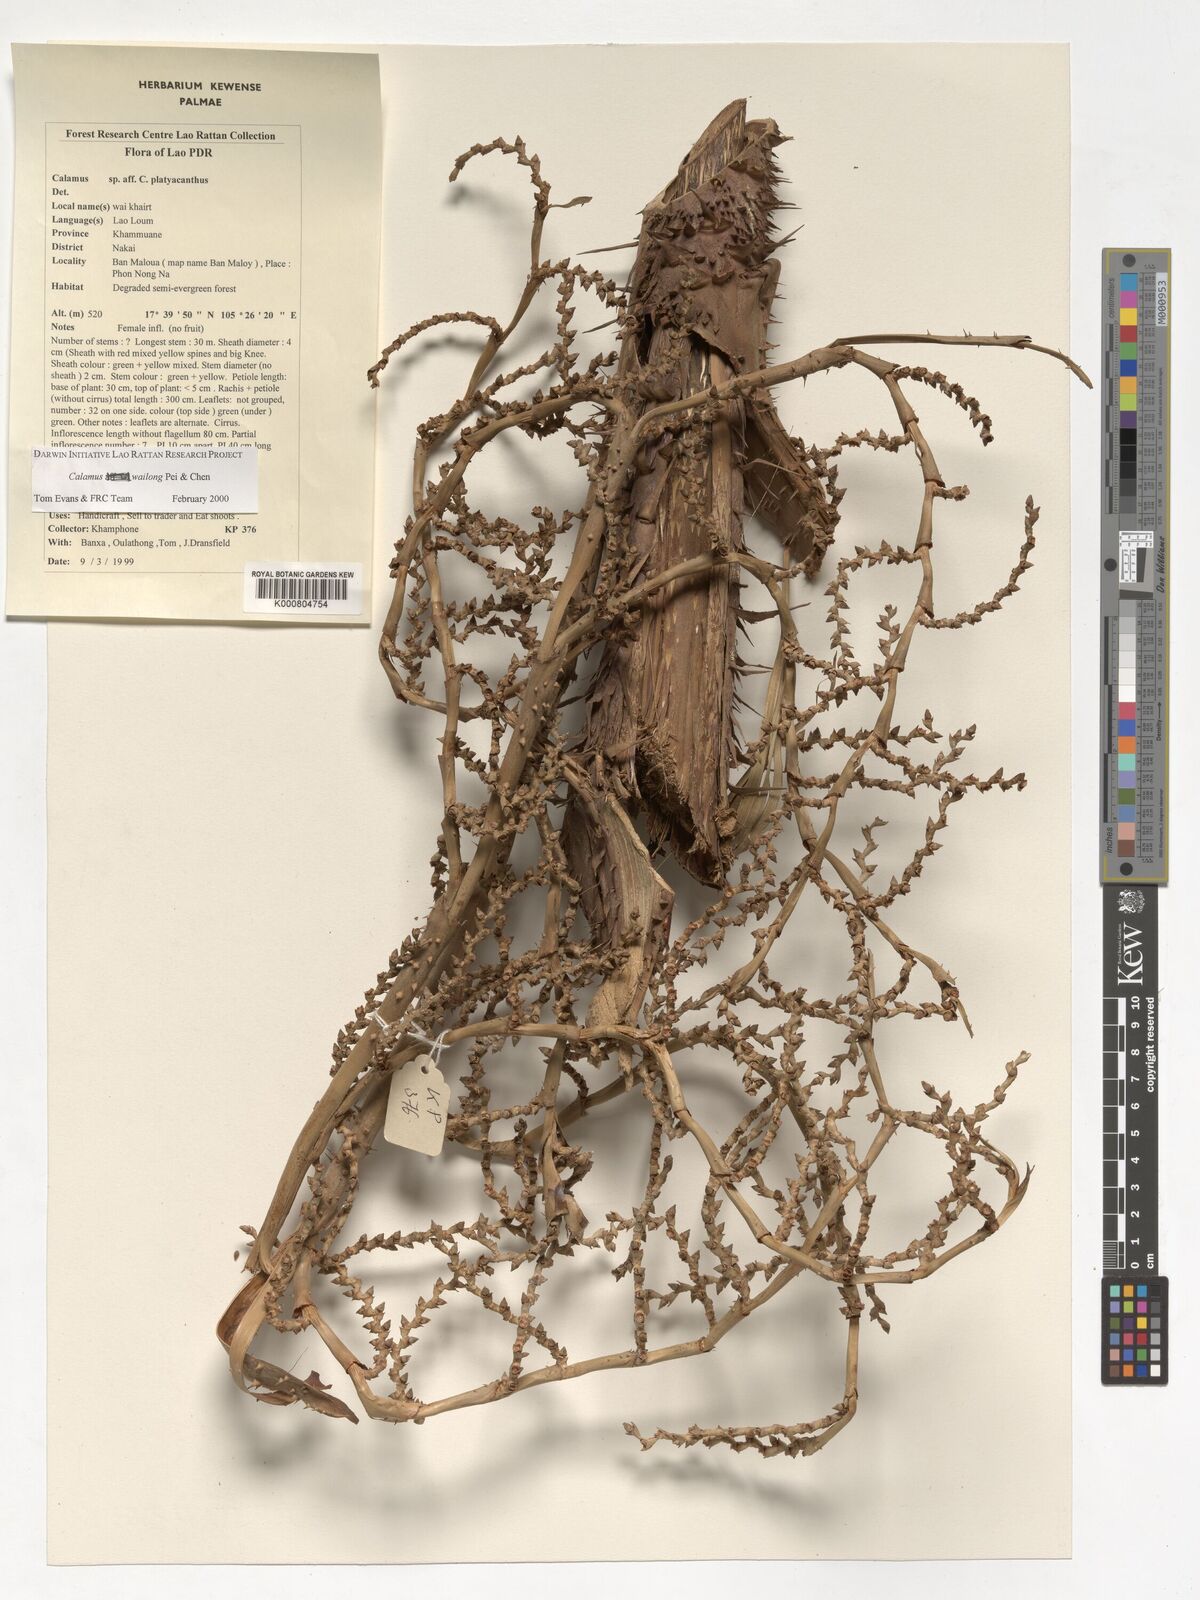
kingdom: Plantae
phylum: Tracheophyta
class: Liliopsida
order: Arecales
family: Arecaceae
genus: Calamus
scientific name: Calamus inermis
